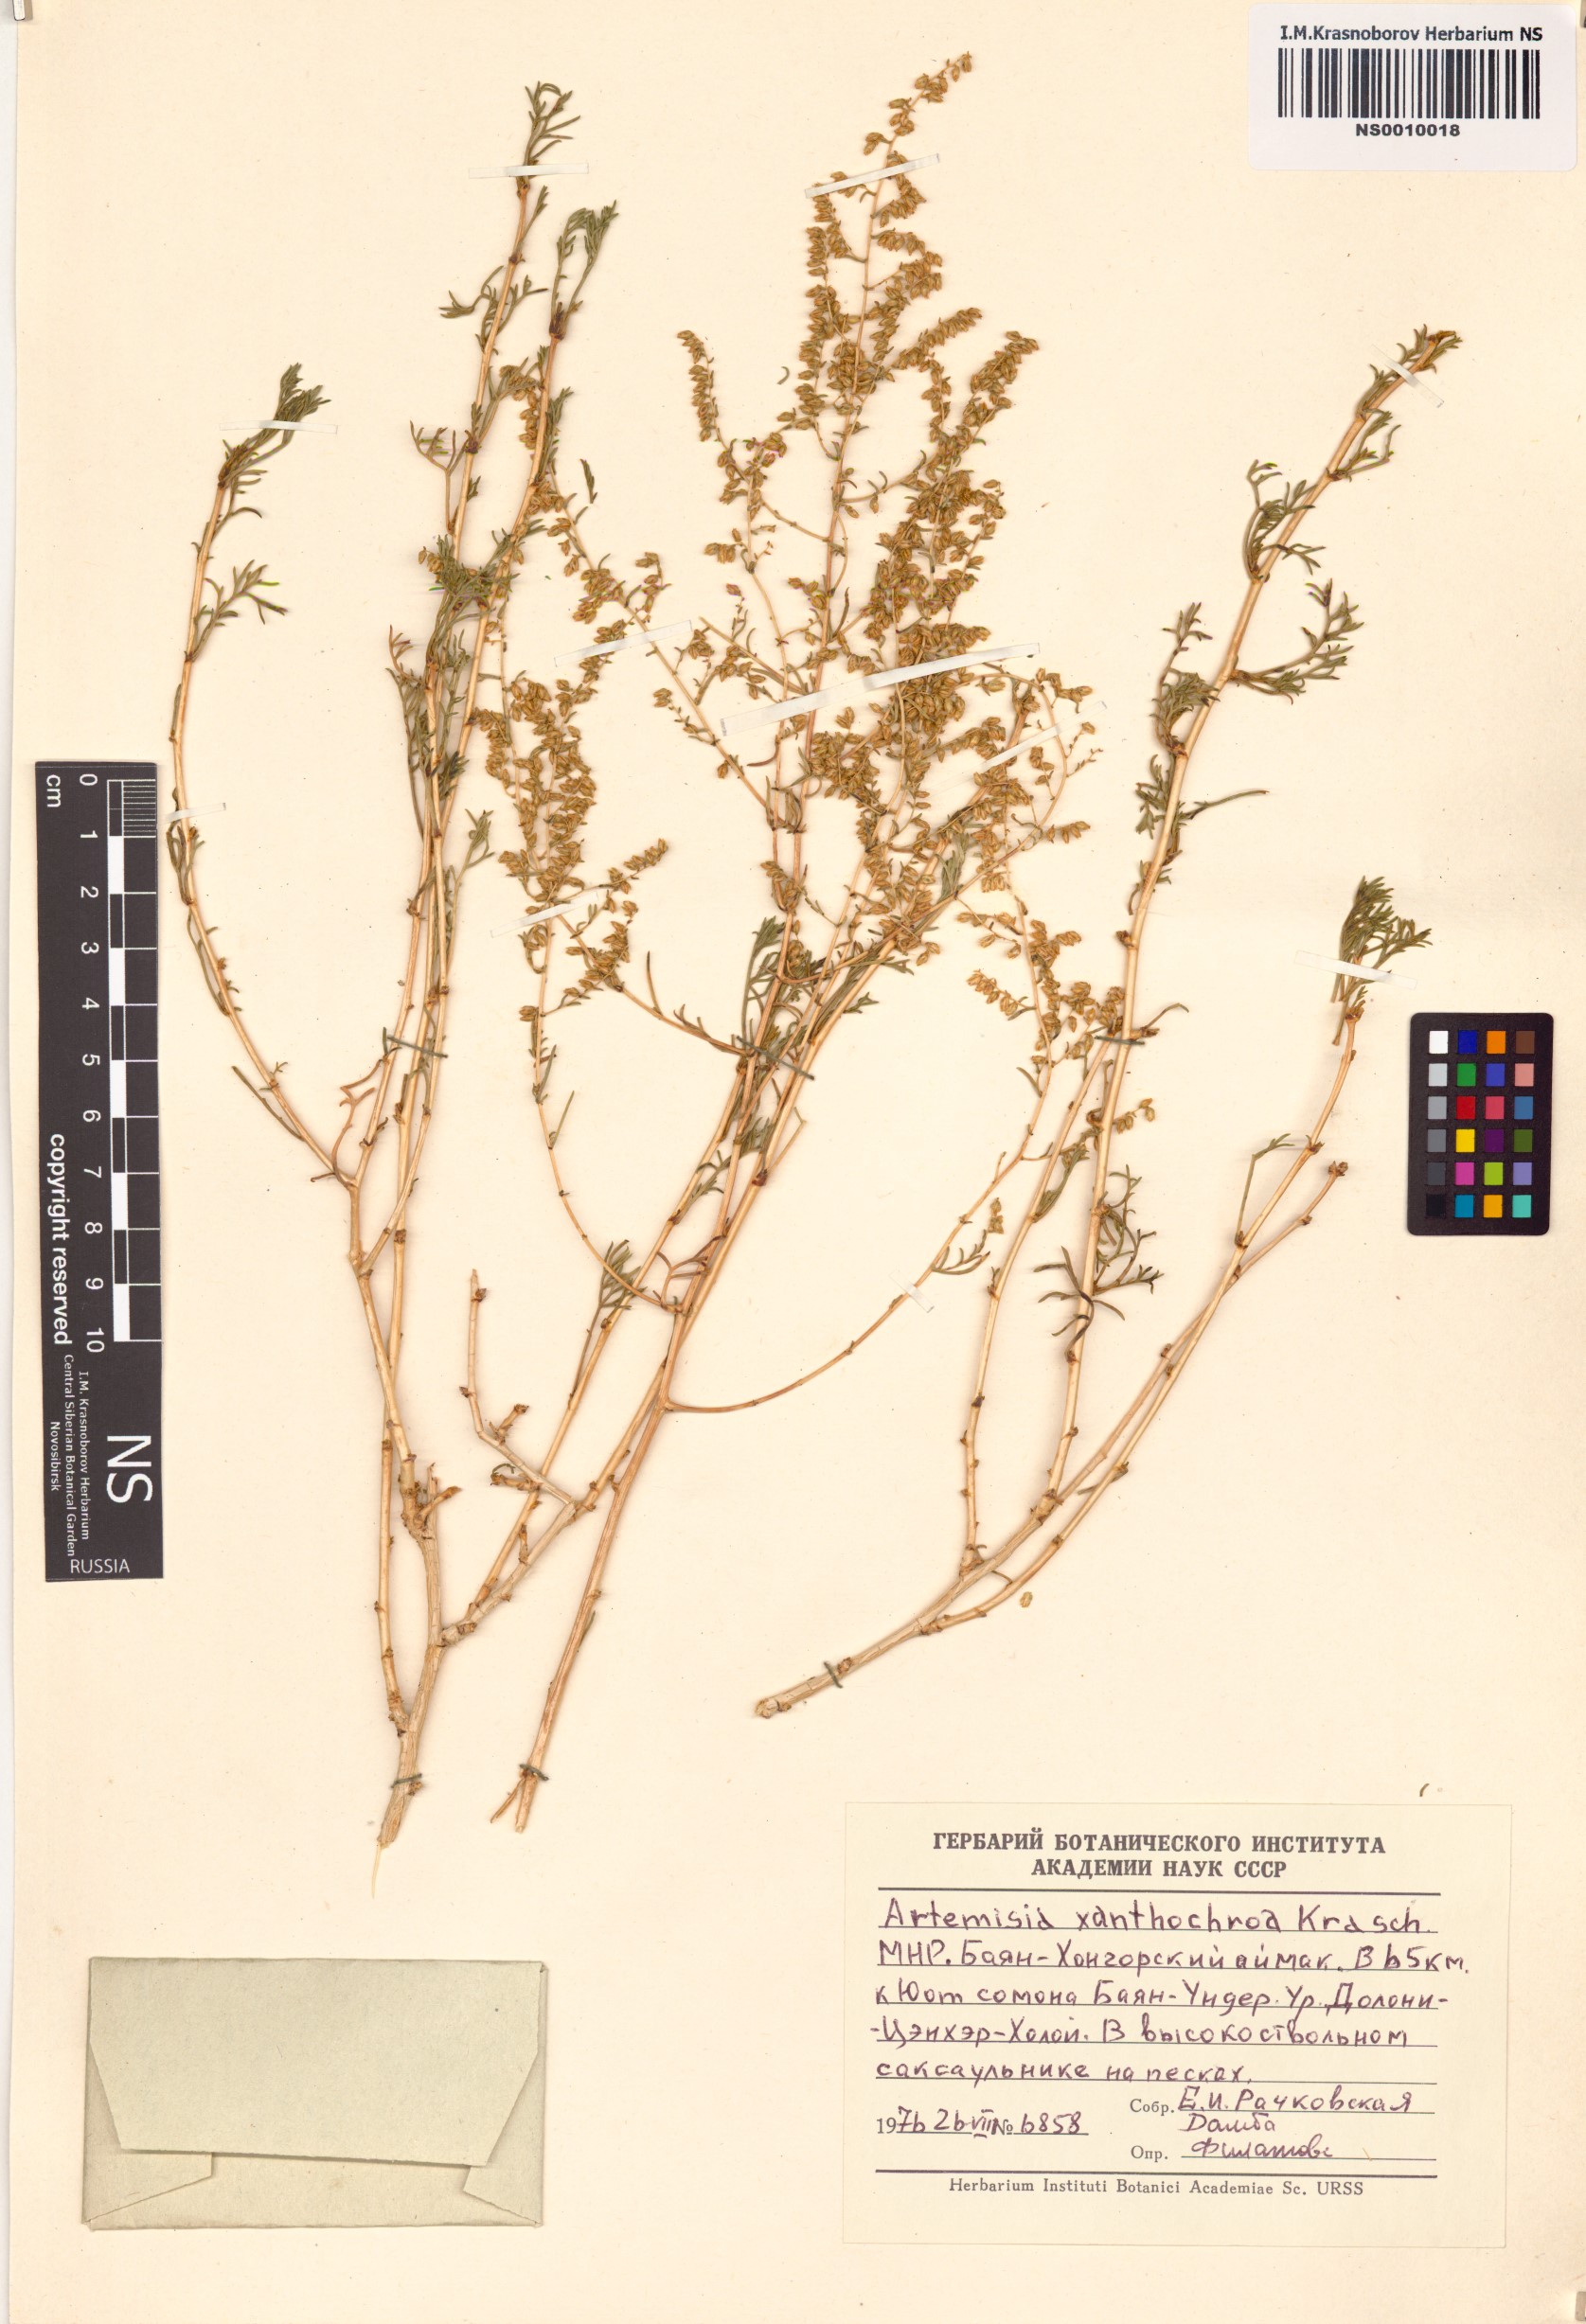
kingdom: Plantae
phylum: Tracheophyta
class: Magnoliopsida
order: Asterales
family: Asteraceae
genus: Artemisia
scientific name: Artemisia xanthochroa
